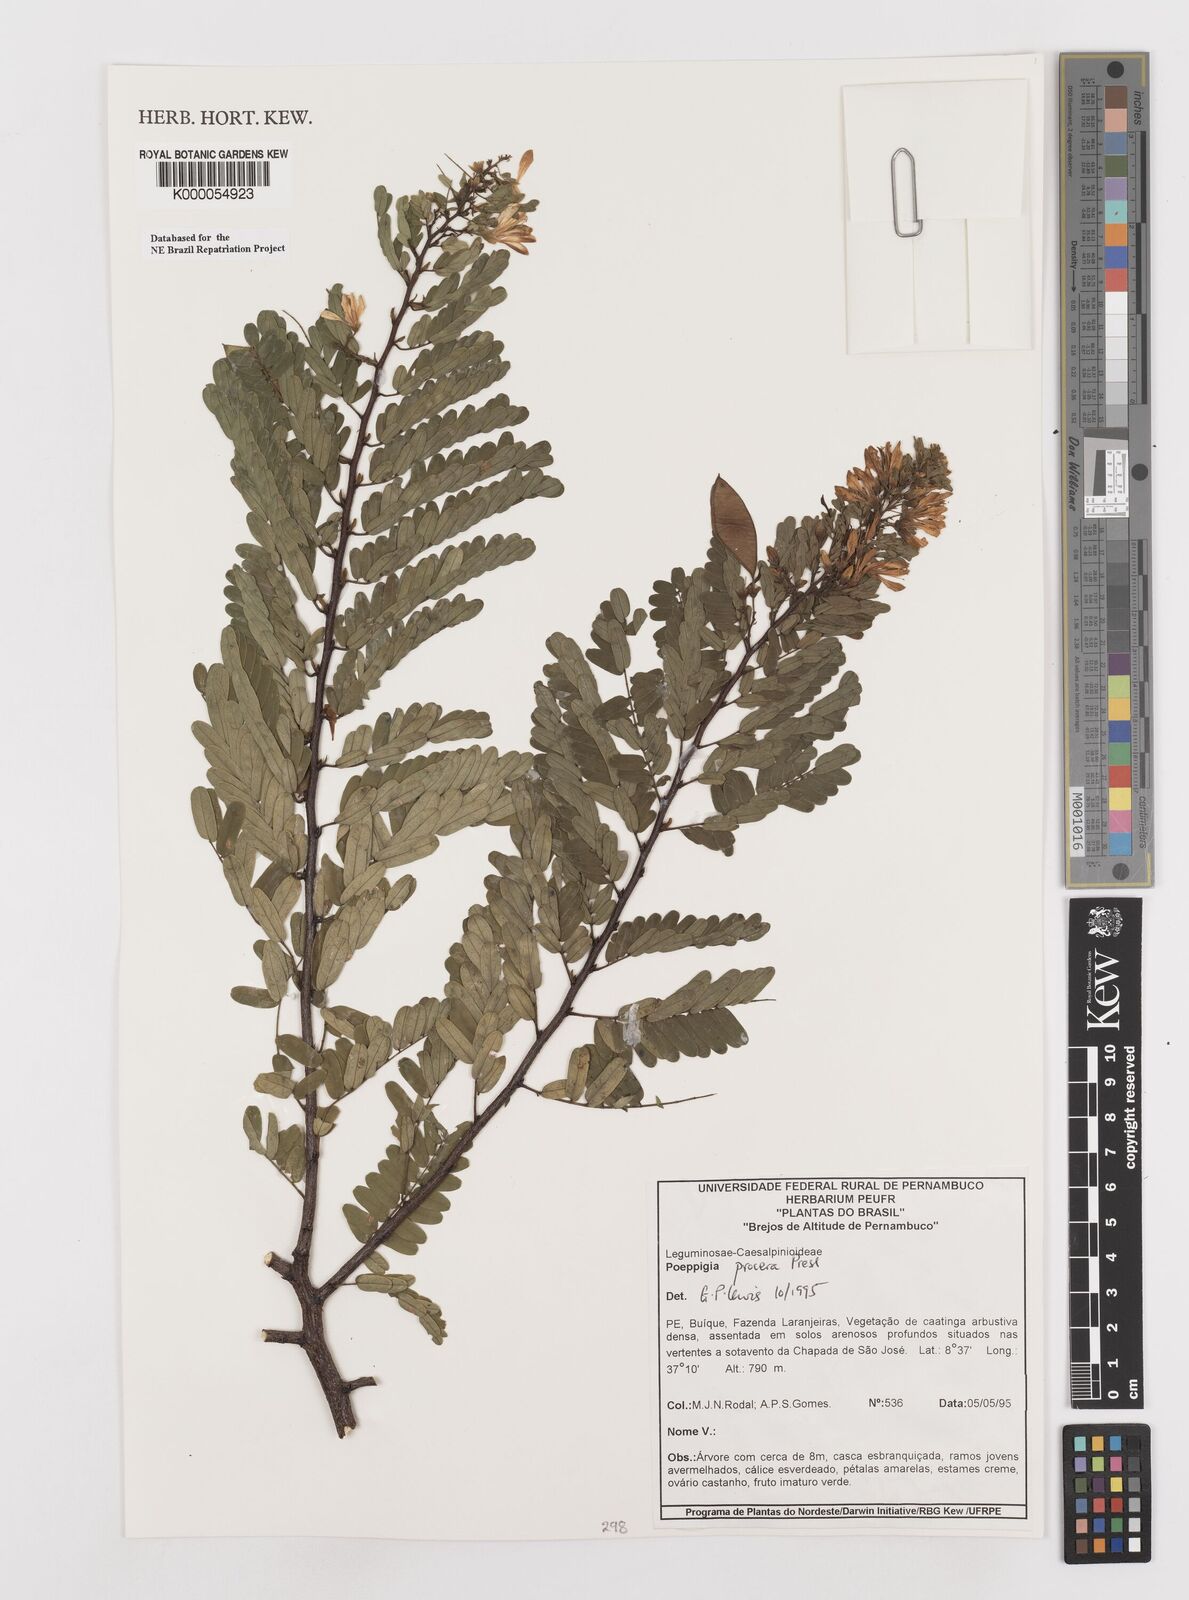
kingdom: Plantae
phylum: Tracheophyta
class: Magnoliopsida
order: Fabales
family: Fabaceae
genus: Poeppigia
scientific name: Poeppigia procera
